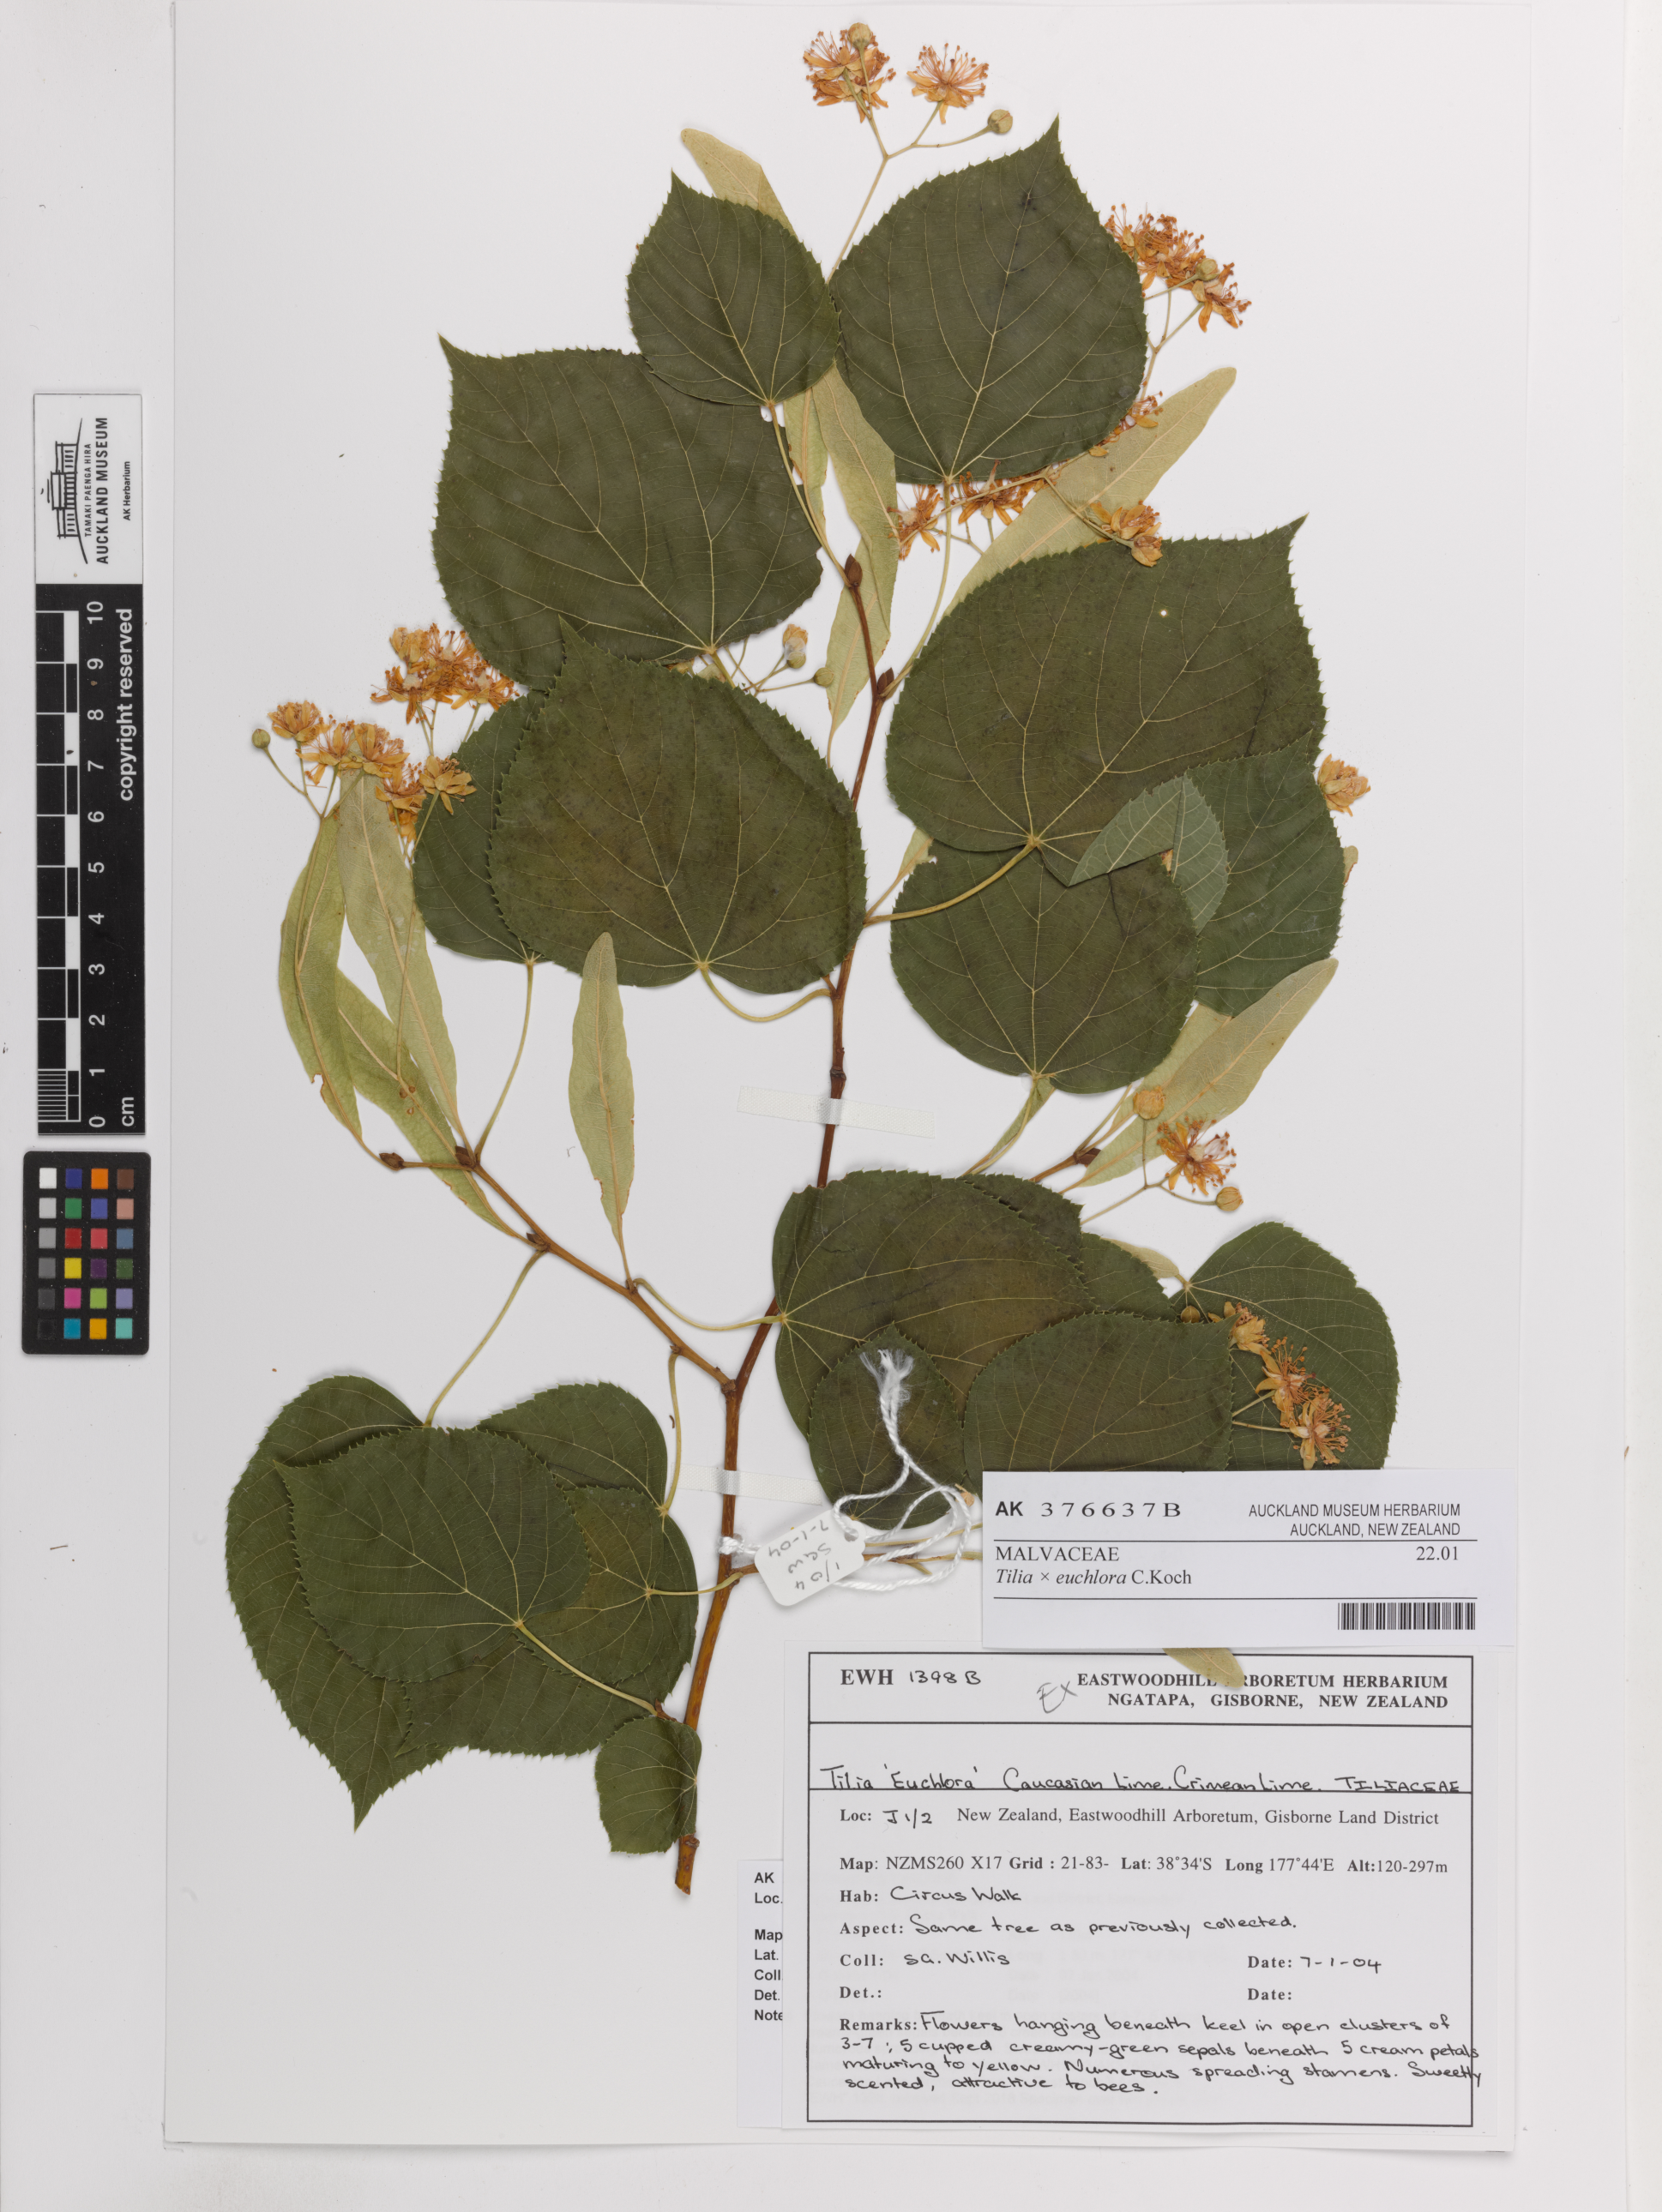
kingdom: Plantae
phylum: Tracheophyta
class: Magnoliopsida
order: Malvales
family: Malvaceae
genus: Tilia
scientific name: Tilia euchlora
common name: Caucasian lime
